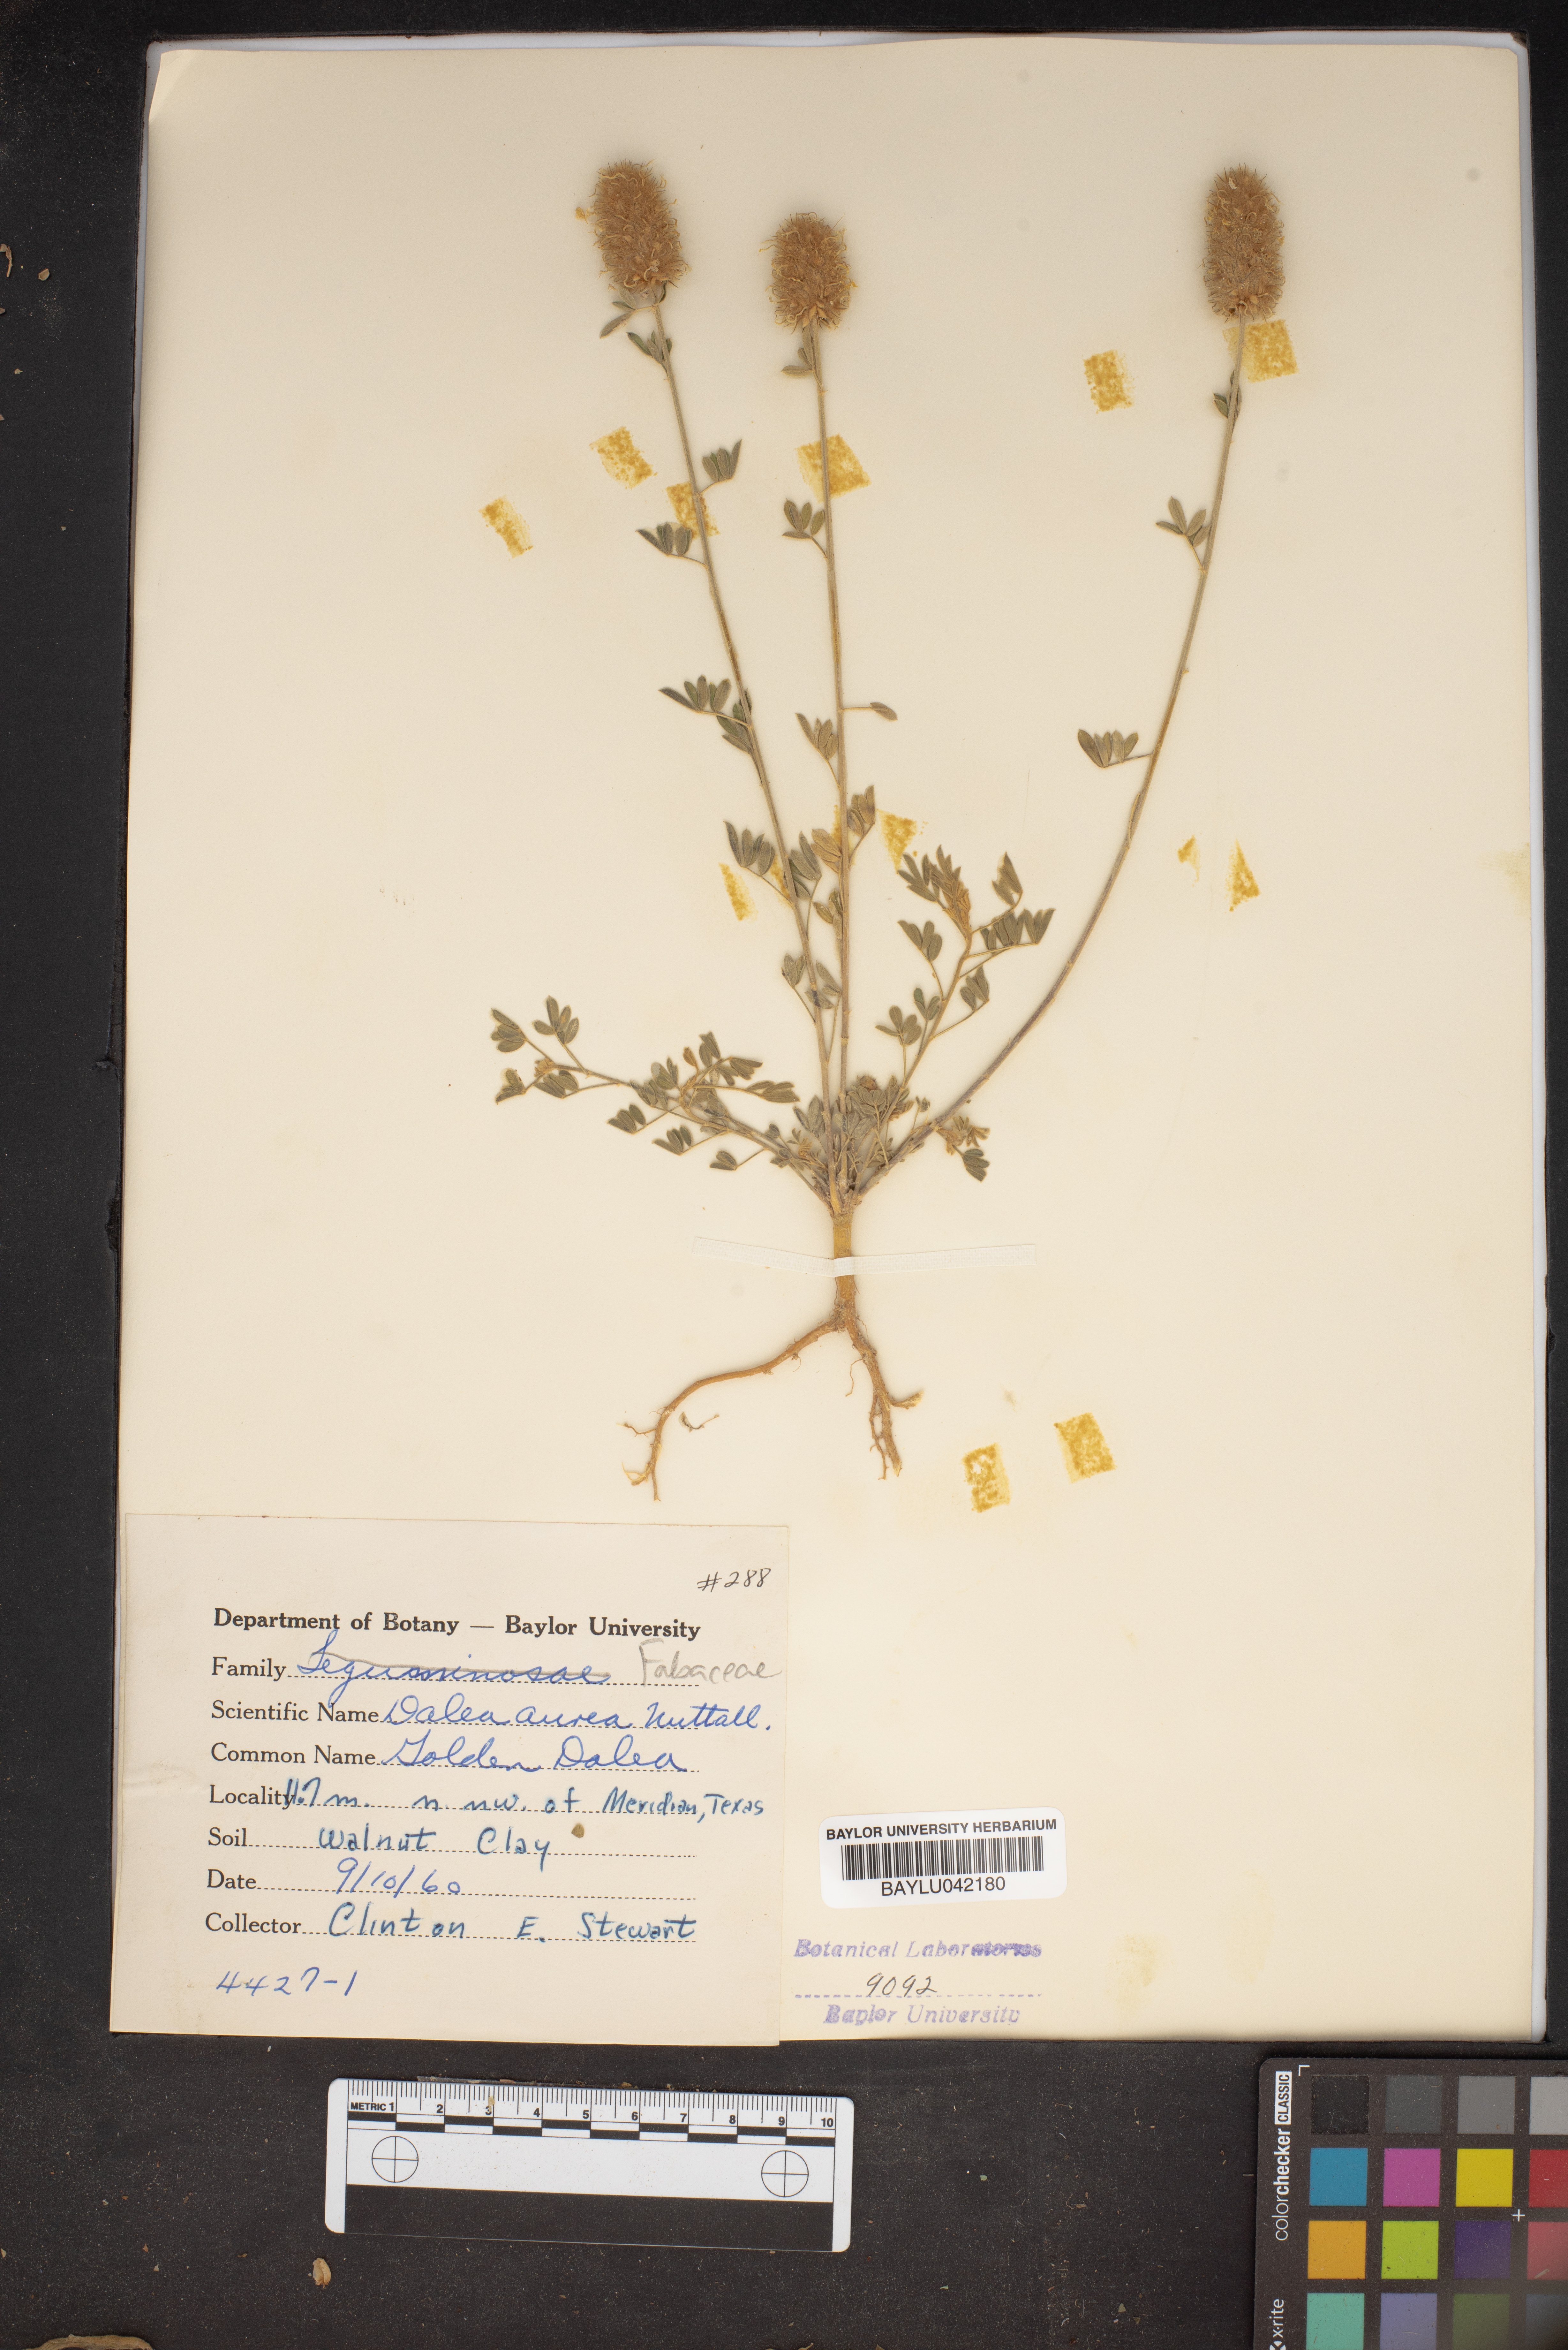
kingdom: Plantae
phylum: Tracheophyta
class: Magnoliopsida
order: Fabales
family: Fabaceae
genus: Dalea
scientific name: Dalea aurea
